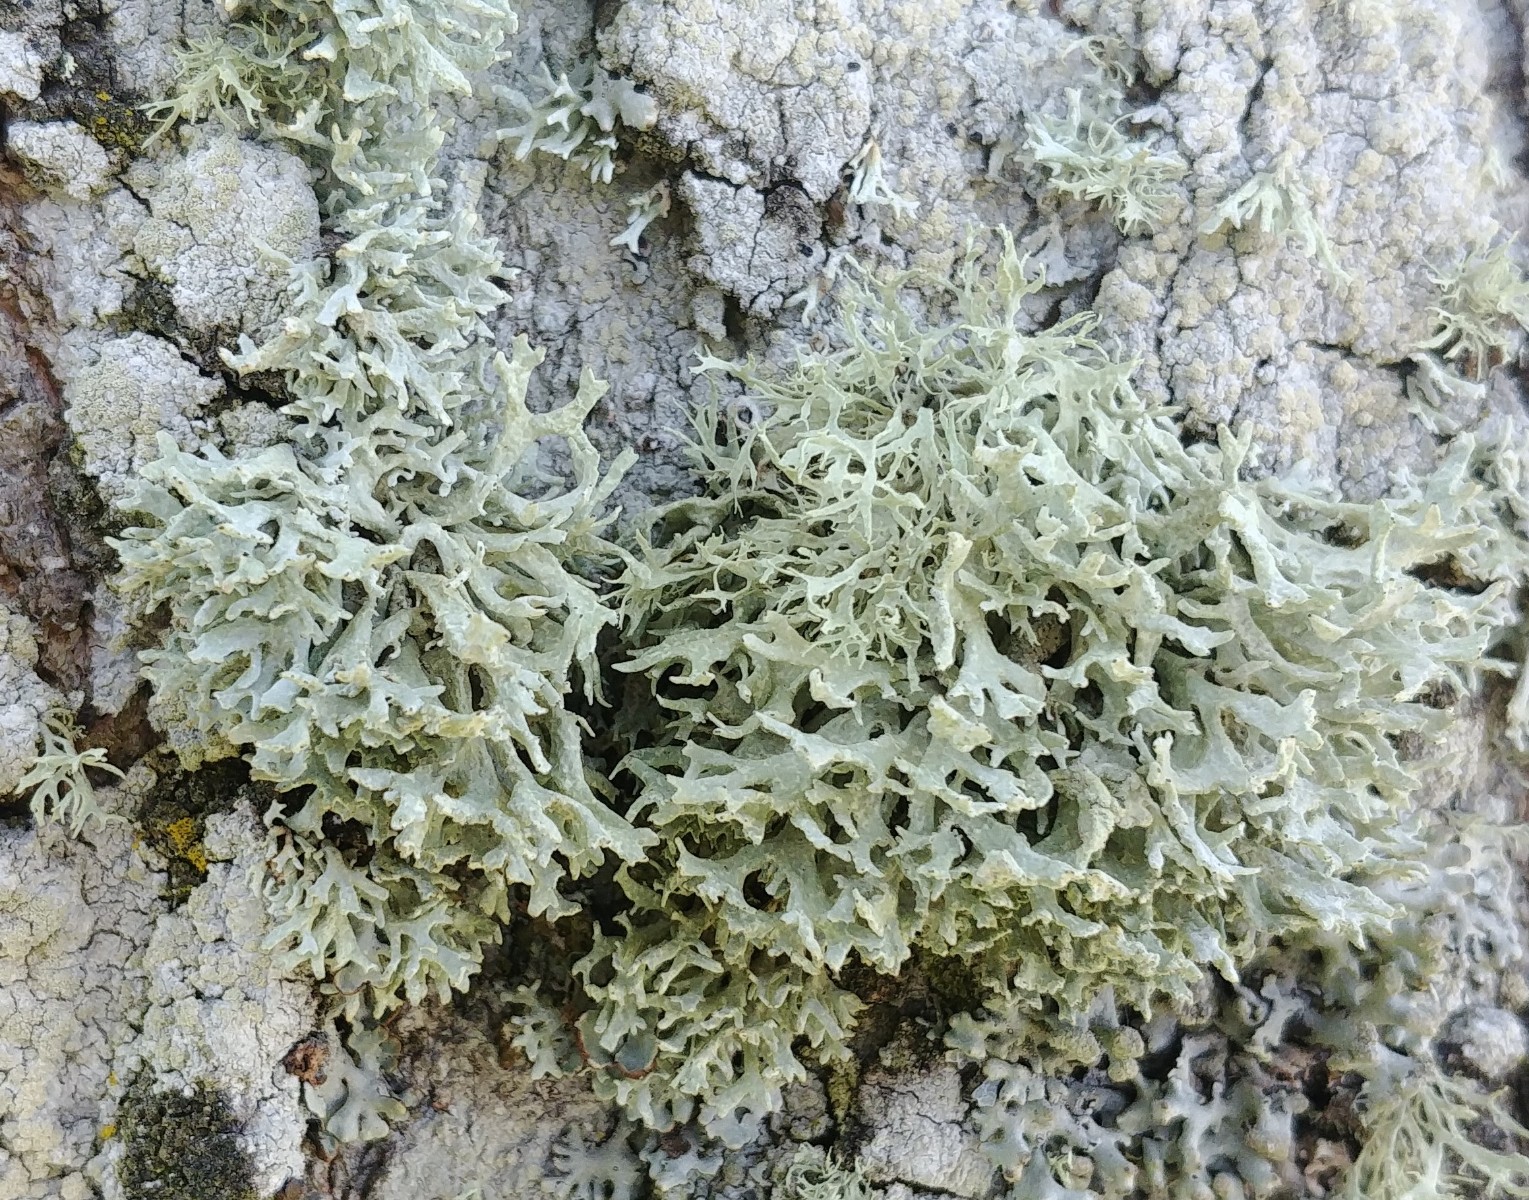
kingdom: Fungi
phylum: Ascomycota
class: Lecanoromycetes
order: Lecanorales
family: Parmeliaceae
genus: Evernia
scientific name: Evernia prunastri
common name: almindelig slåenlav
